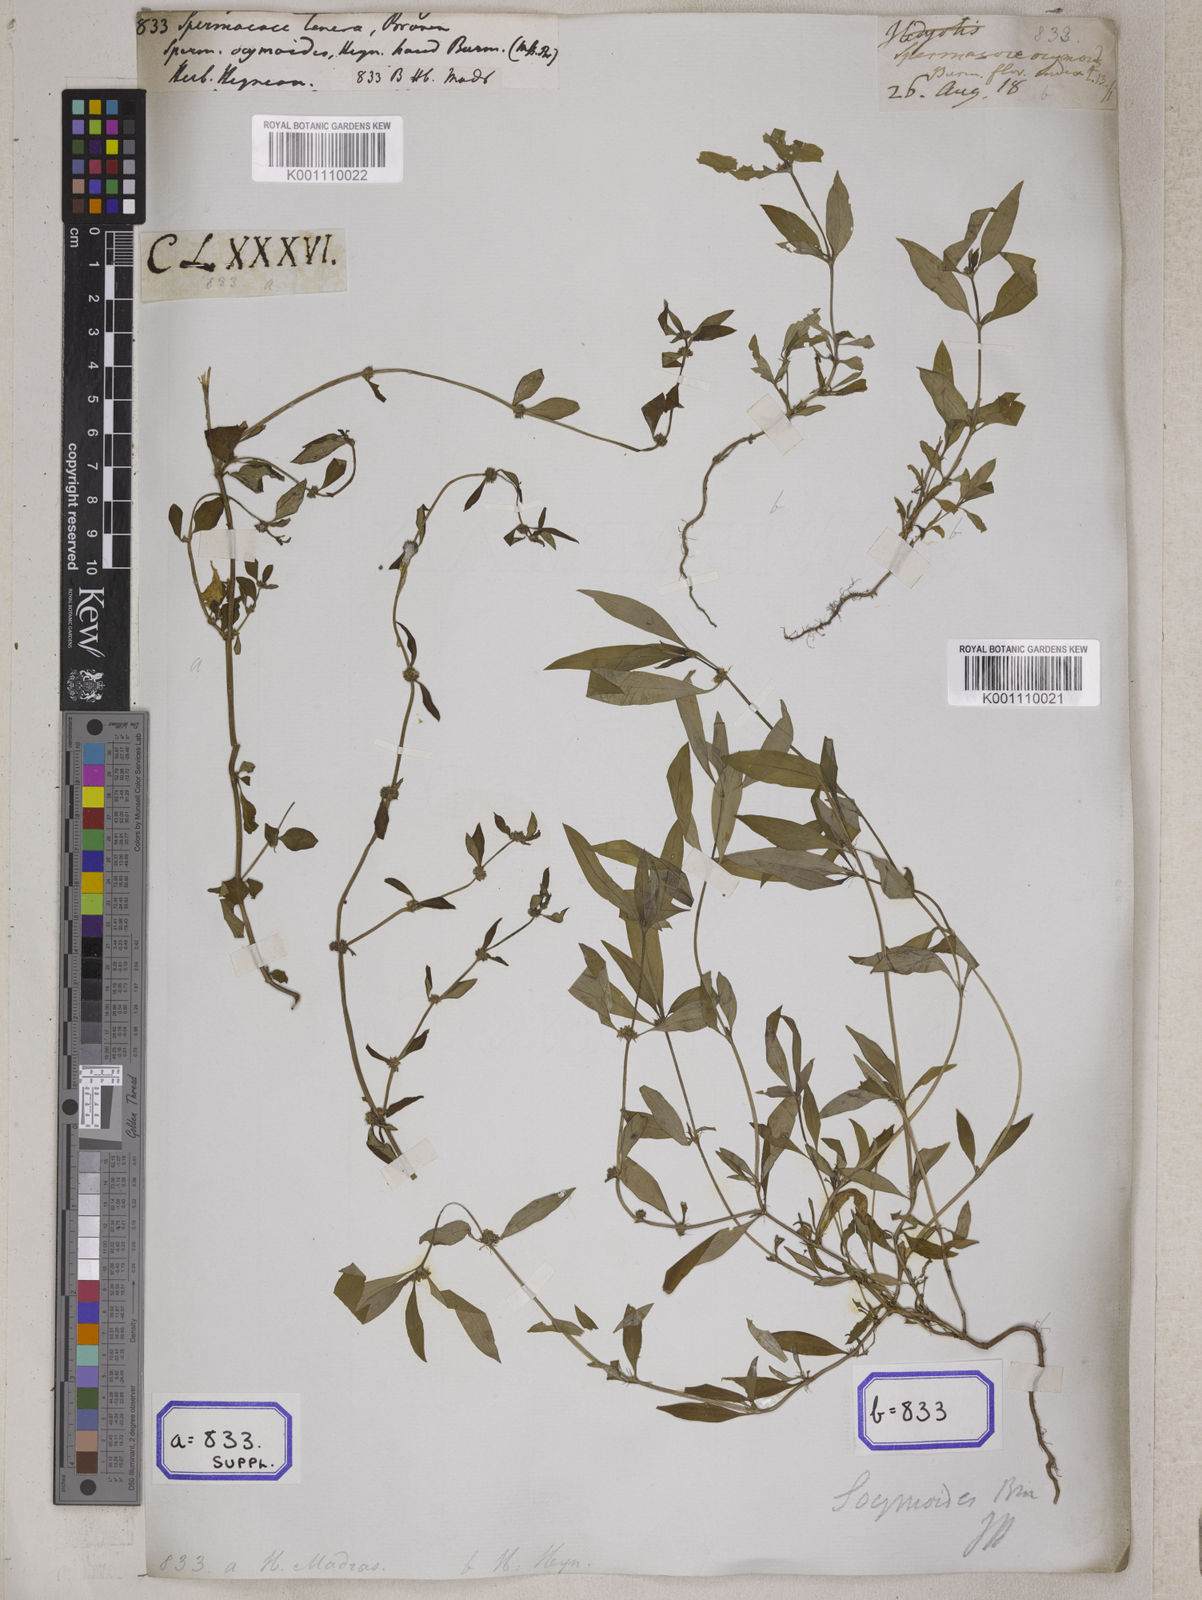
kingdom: Plantae
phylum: Tracheophyta
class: Magnoliopsida
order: Gentianales
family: Rubiaceae
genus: Spermacoce
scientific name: Spermacoce
